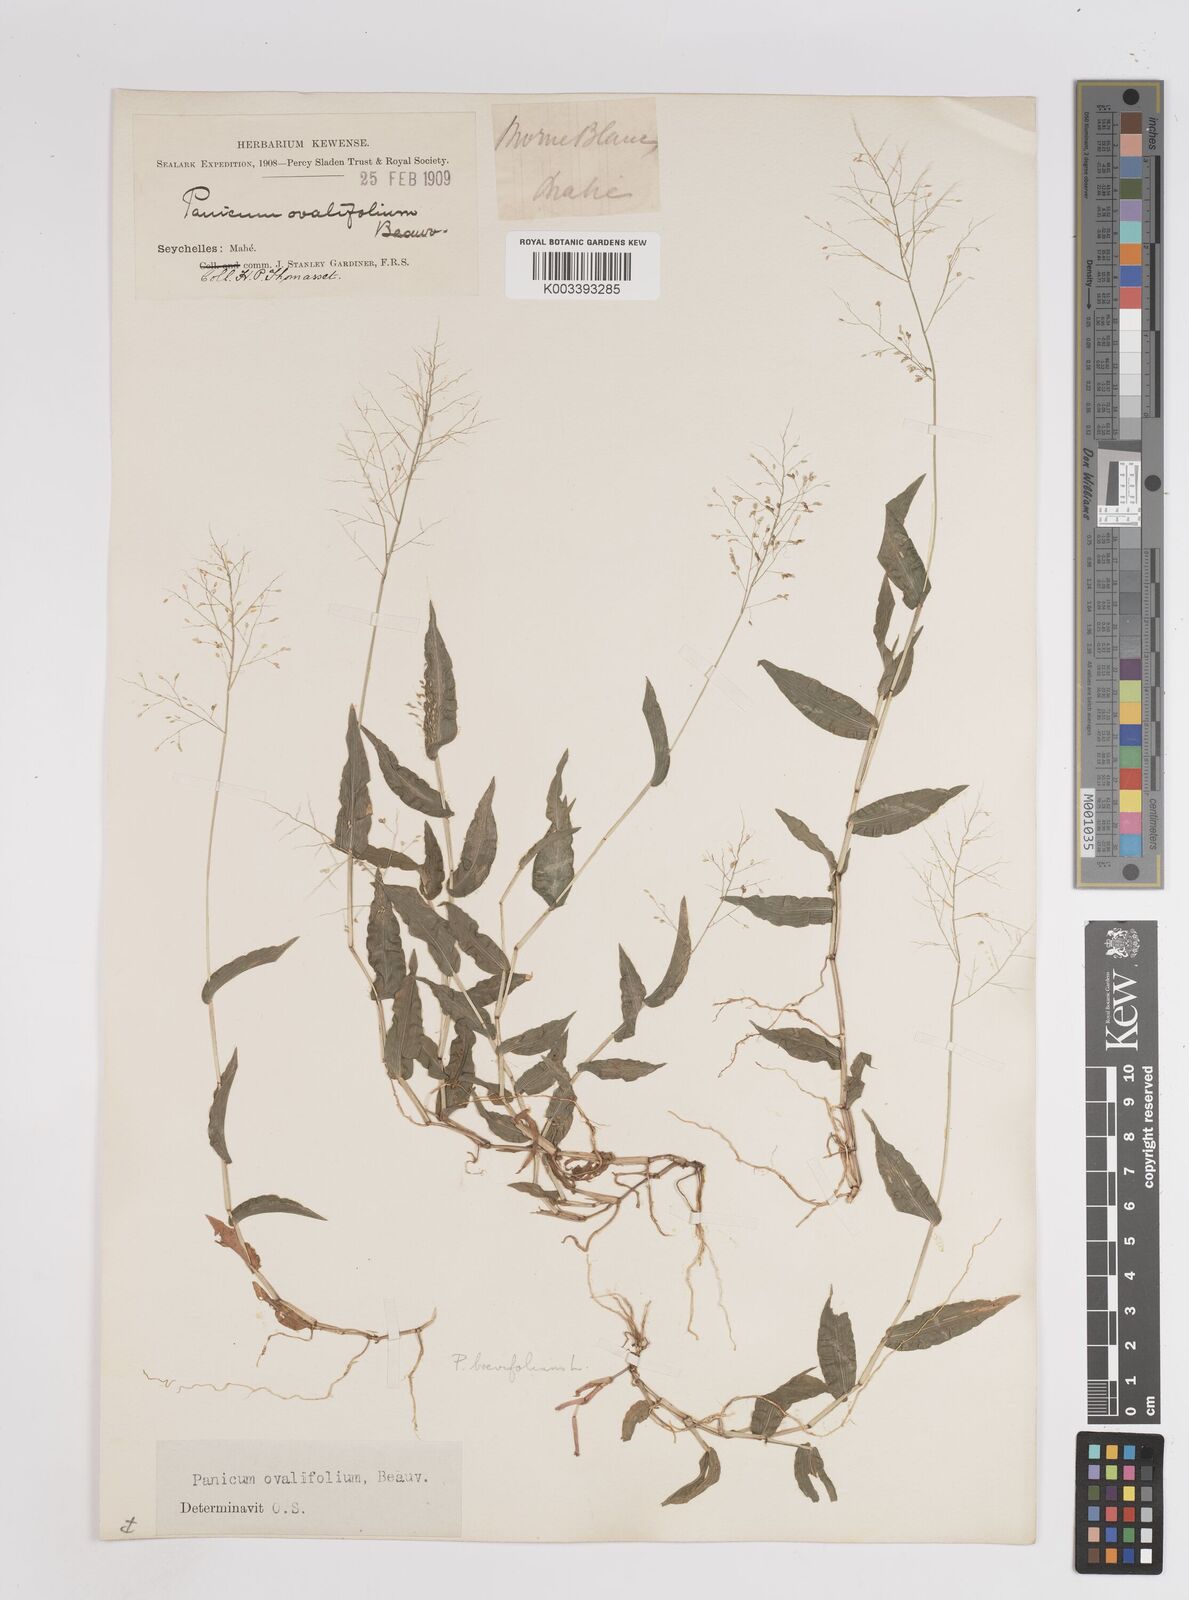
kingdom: Plantae
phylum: Tracheophyta
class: Liliopsida
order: Poales
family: Poaceae
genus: Panicum
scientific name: Panicum brevifolium
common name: Shortleaf panic grass
